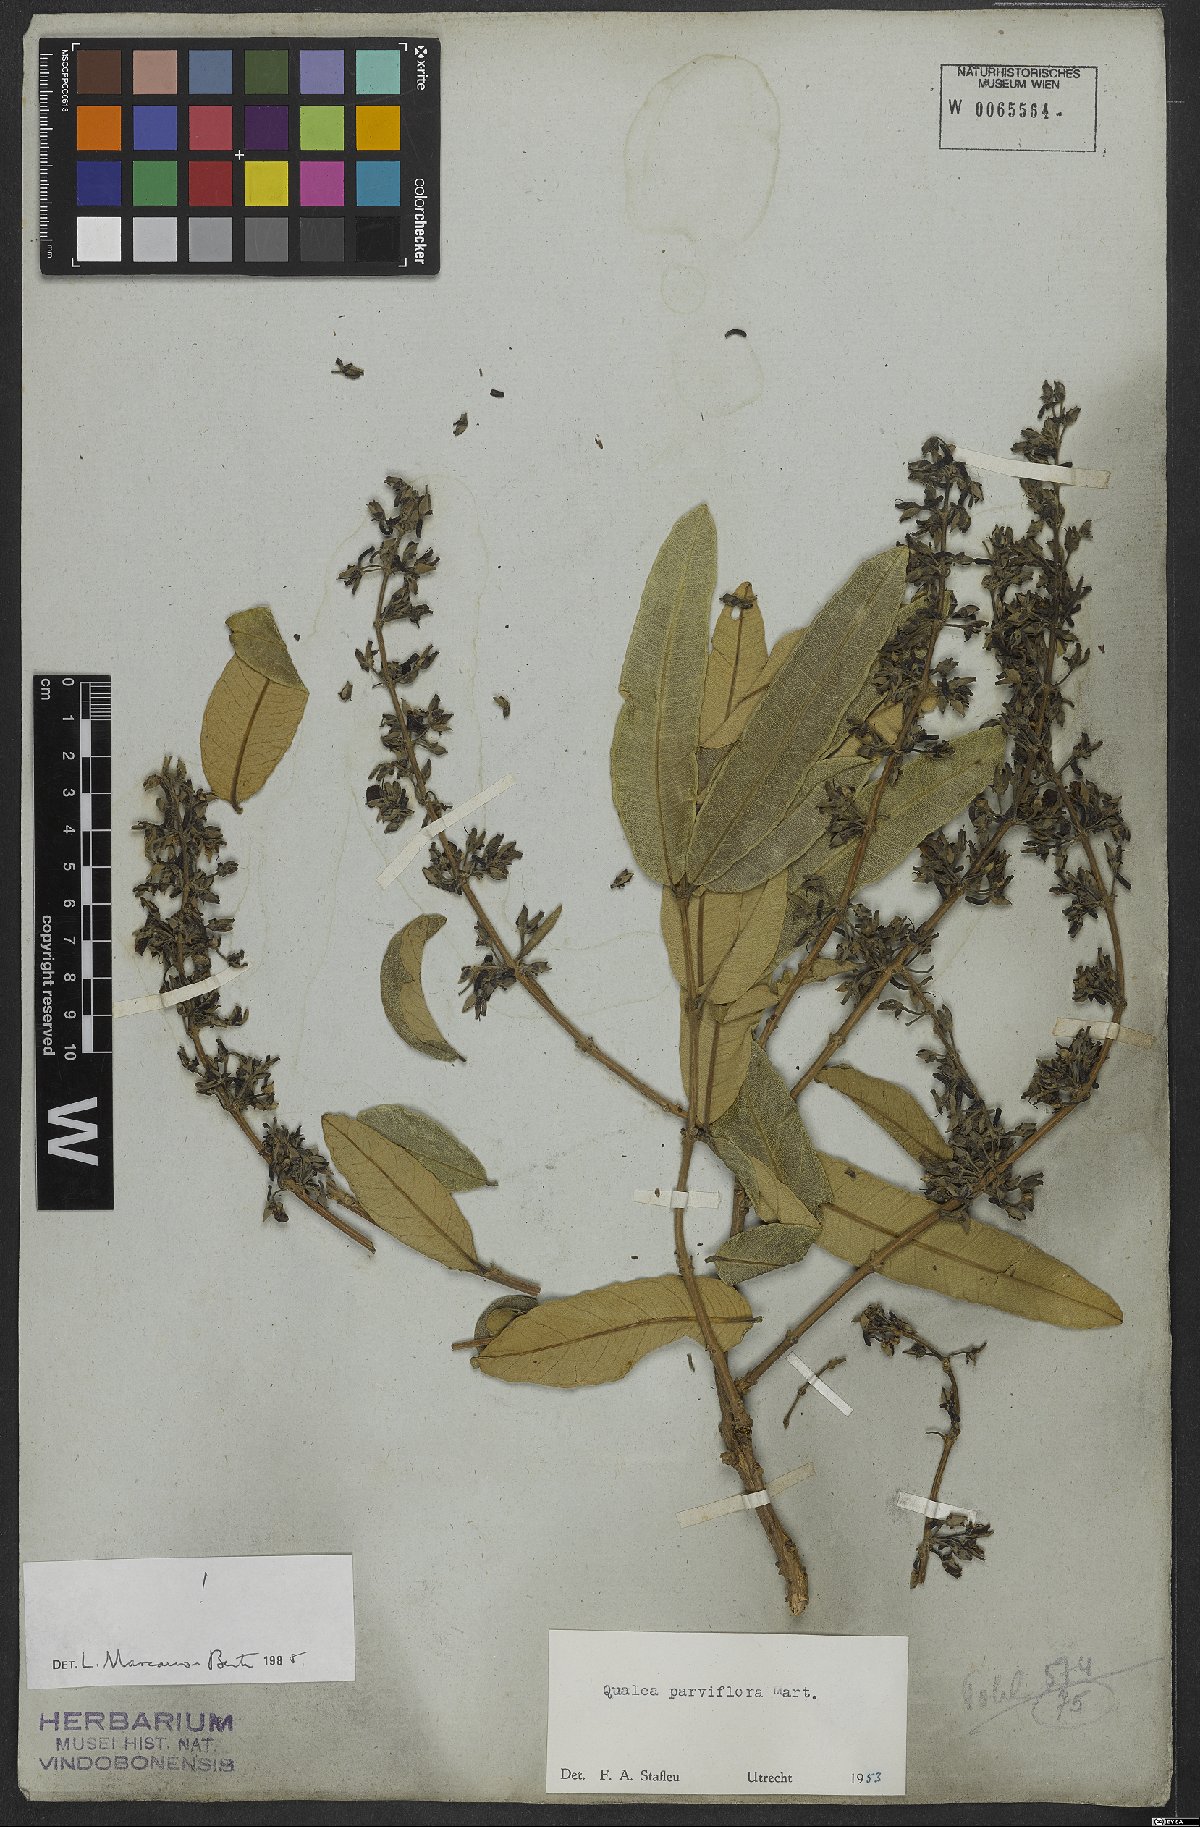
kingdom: Plantae
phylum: Tracheophyta
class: Magnoliopsida
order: Myrtales
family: Vochysiaceae
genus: Qualea
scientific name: Qualea parviflora
